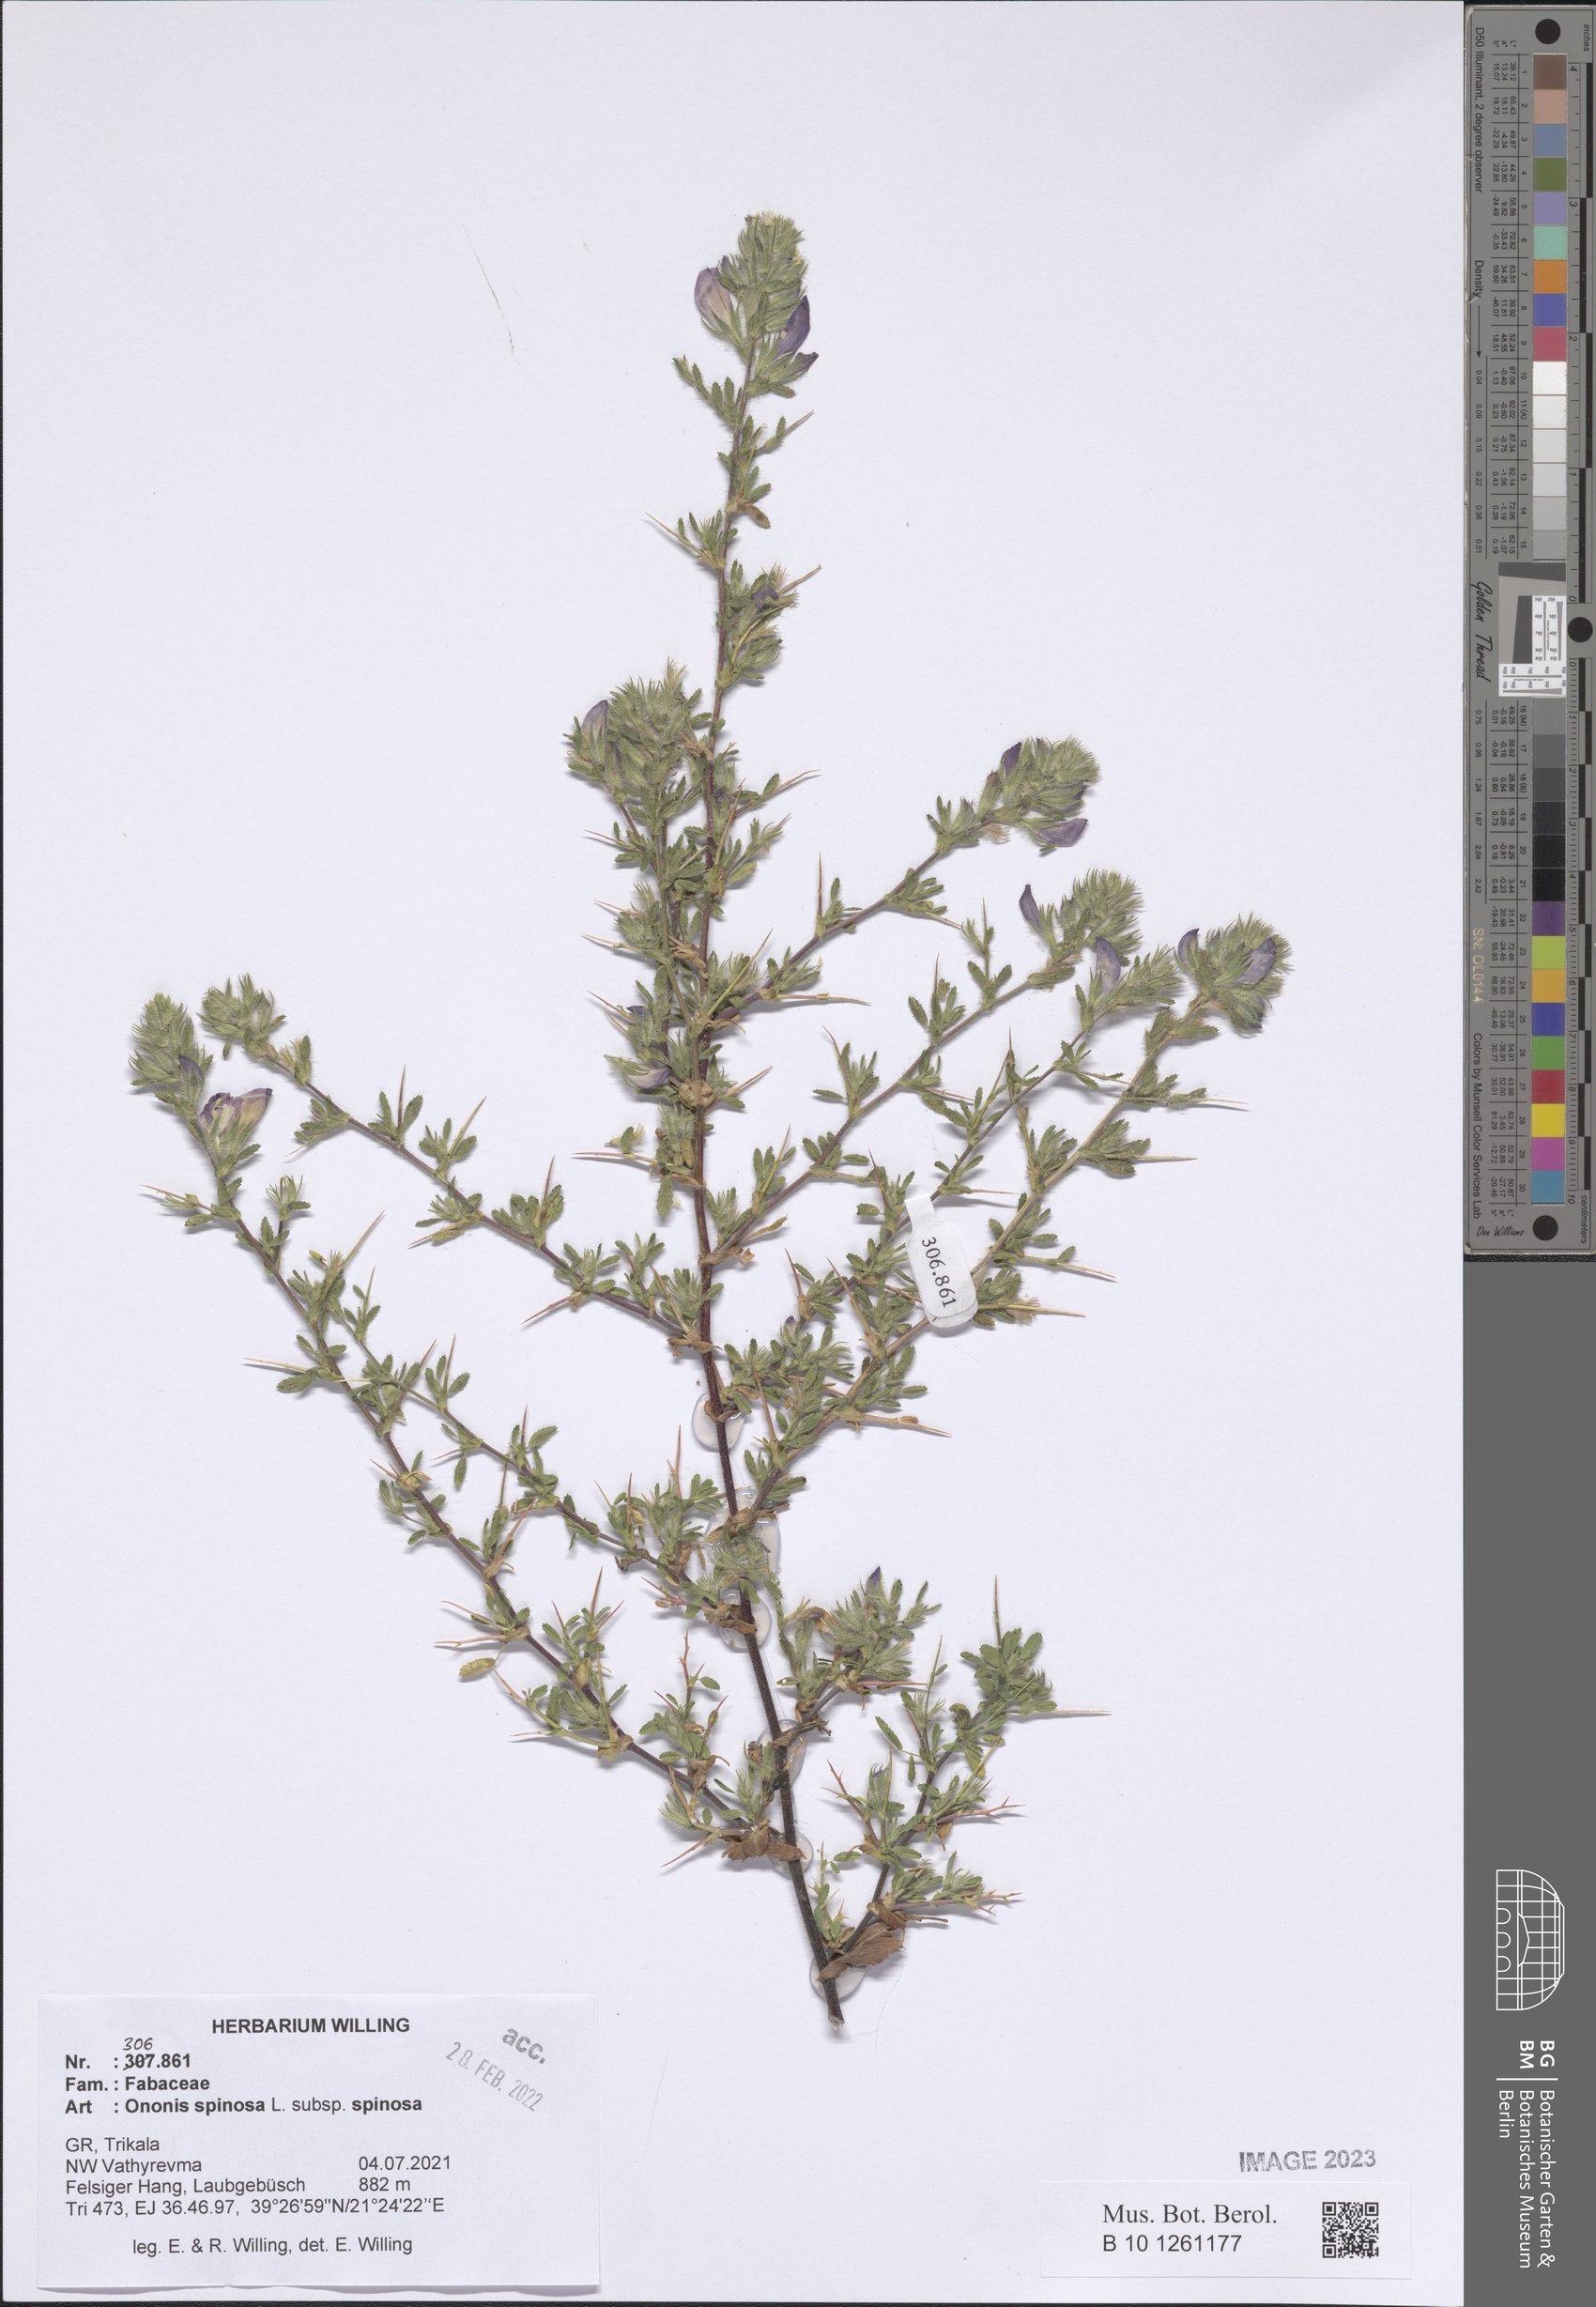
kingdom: Plantae
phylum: Tracheophyta
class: Magnoliopsida
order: Fabales
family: Fabaceae
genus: Ononis
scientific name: Ononis spinosa
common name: Spiny restharrow
